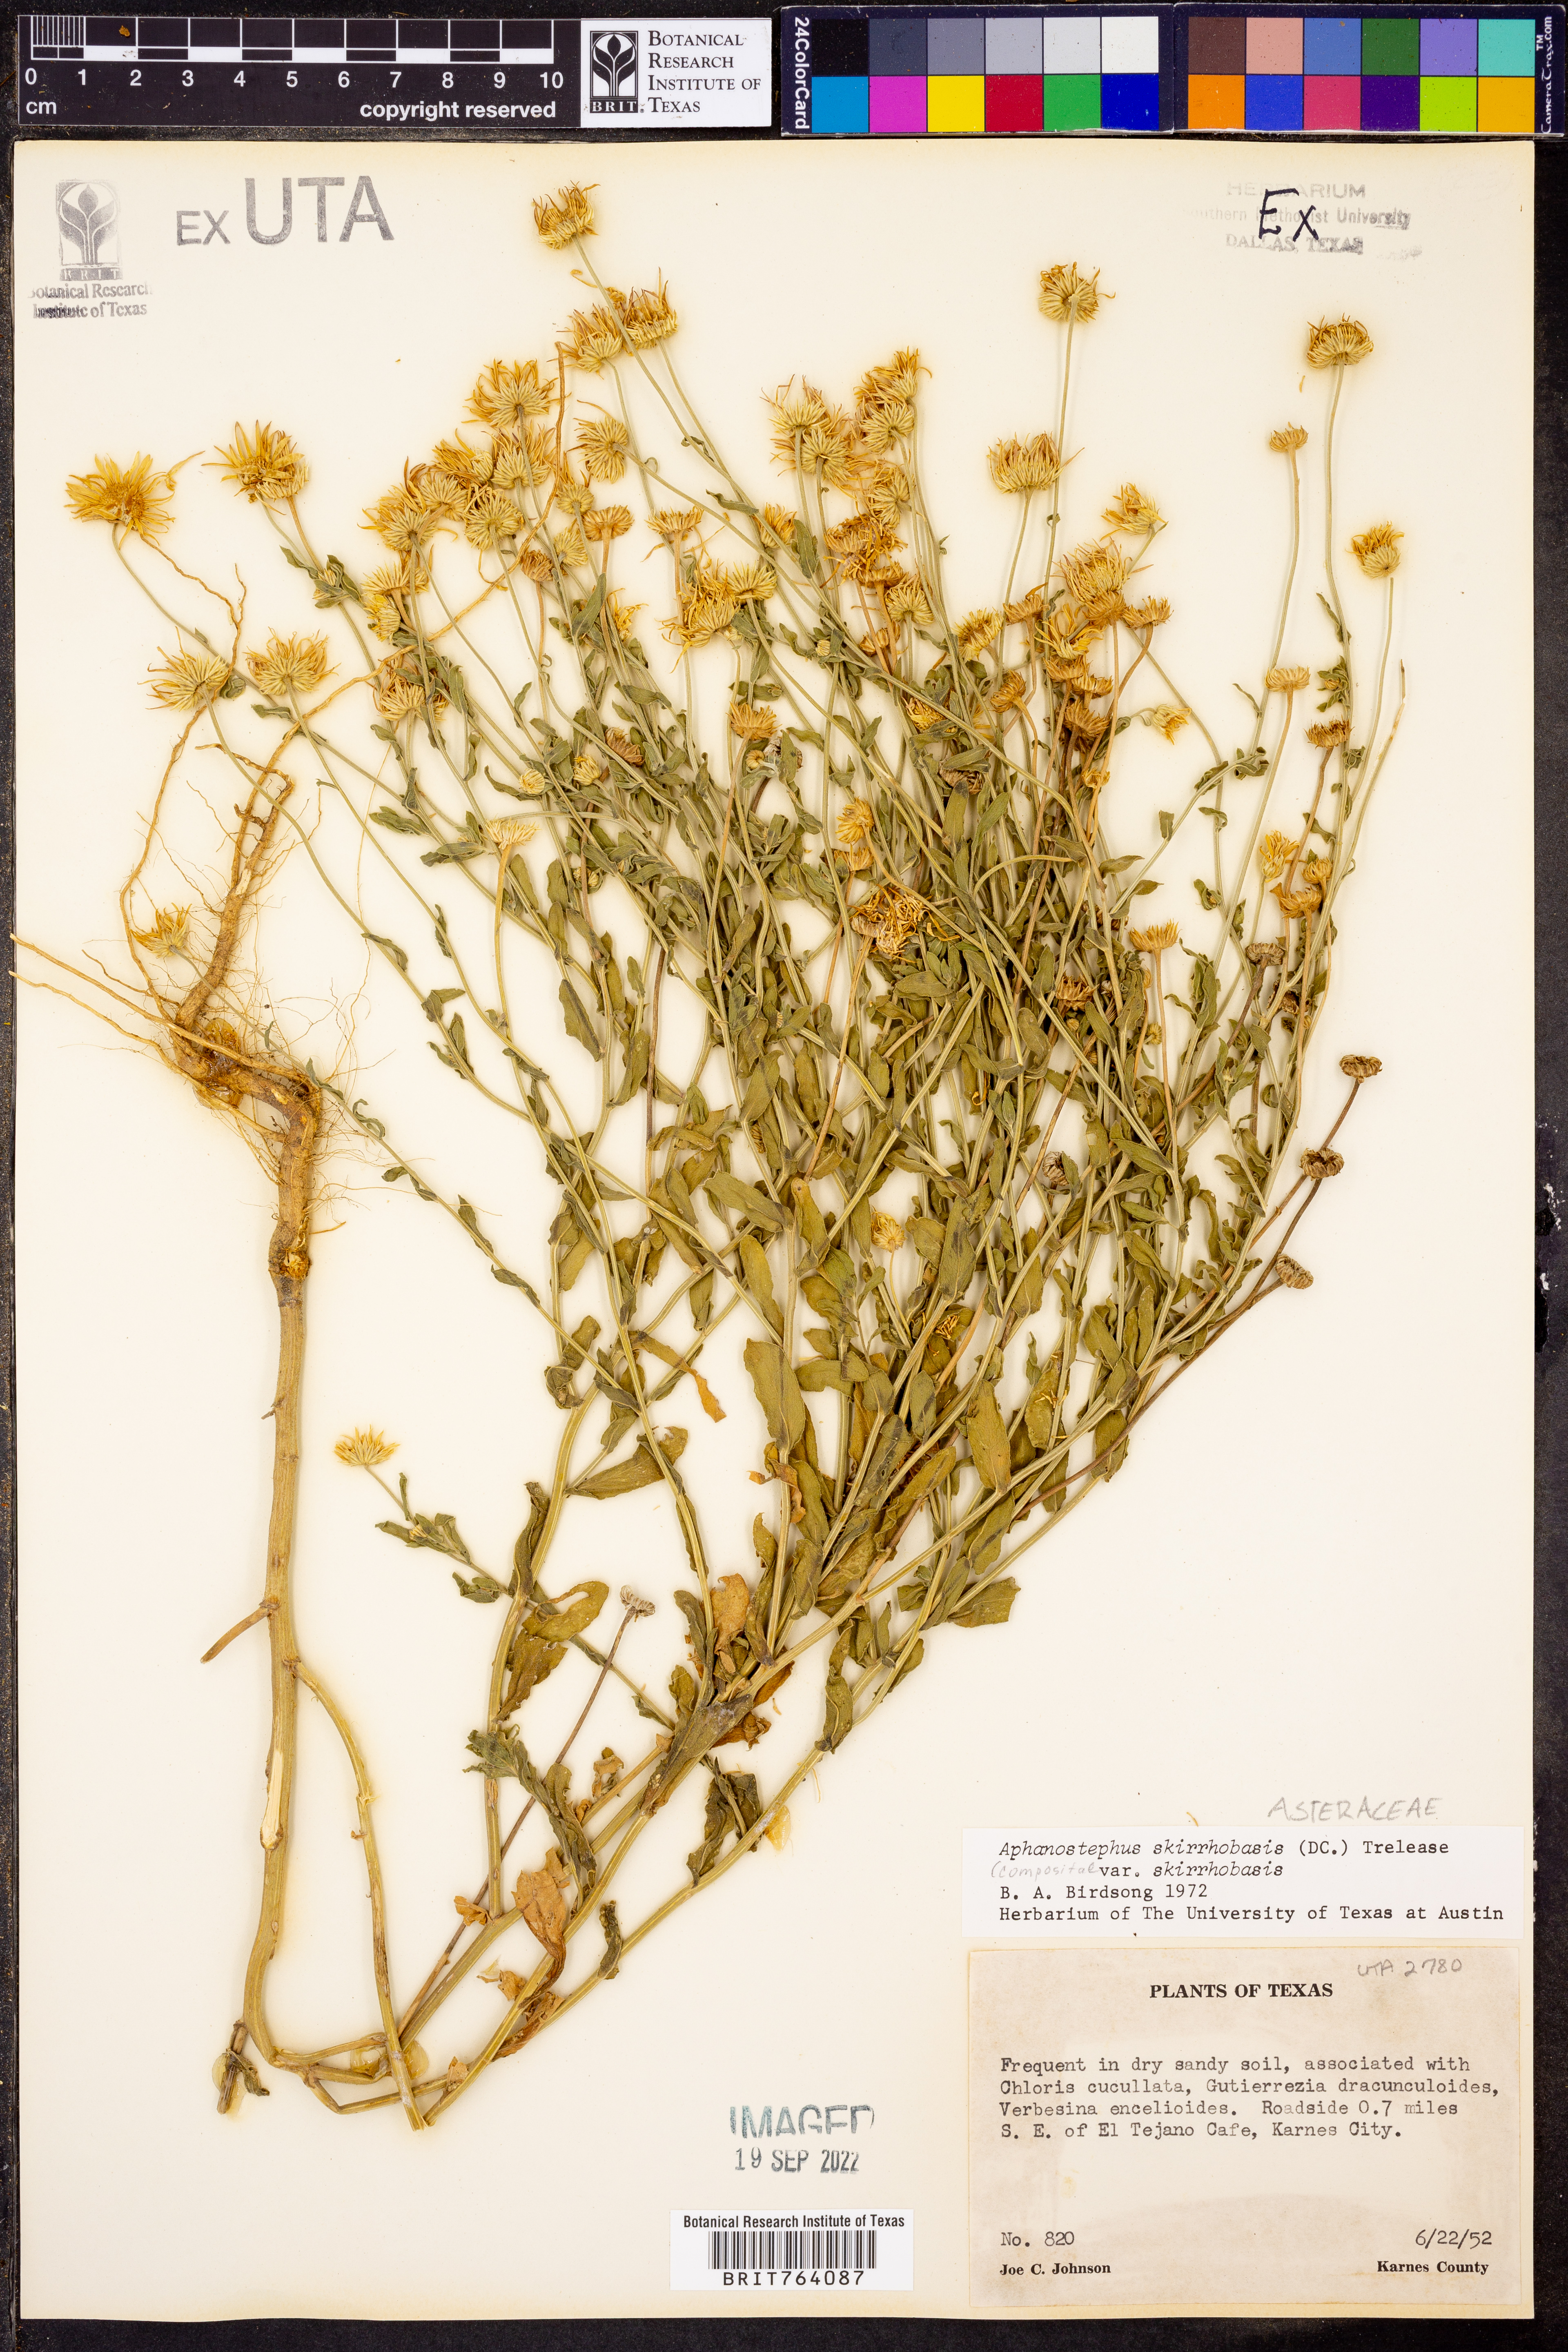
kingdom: Plantae
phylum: Tracheophyta
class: Magnoliopsida
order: Asterales
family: Asteraceae
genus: Aphanostephus
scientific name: Aphanostephus skirrhobasis
